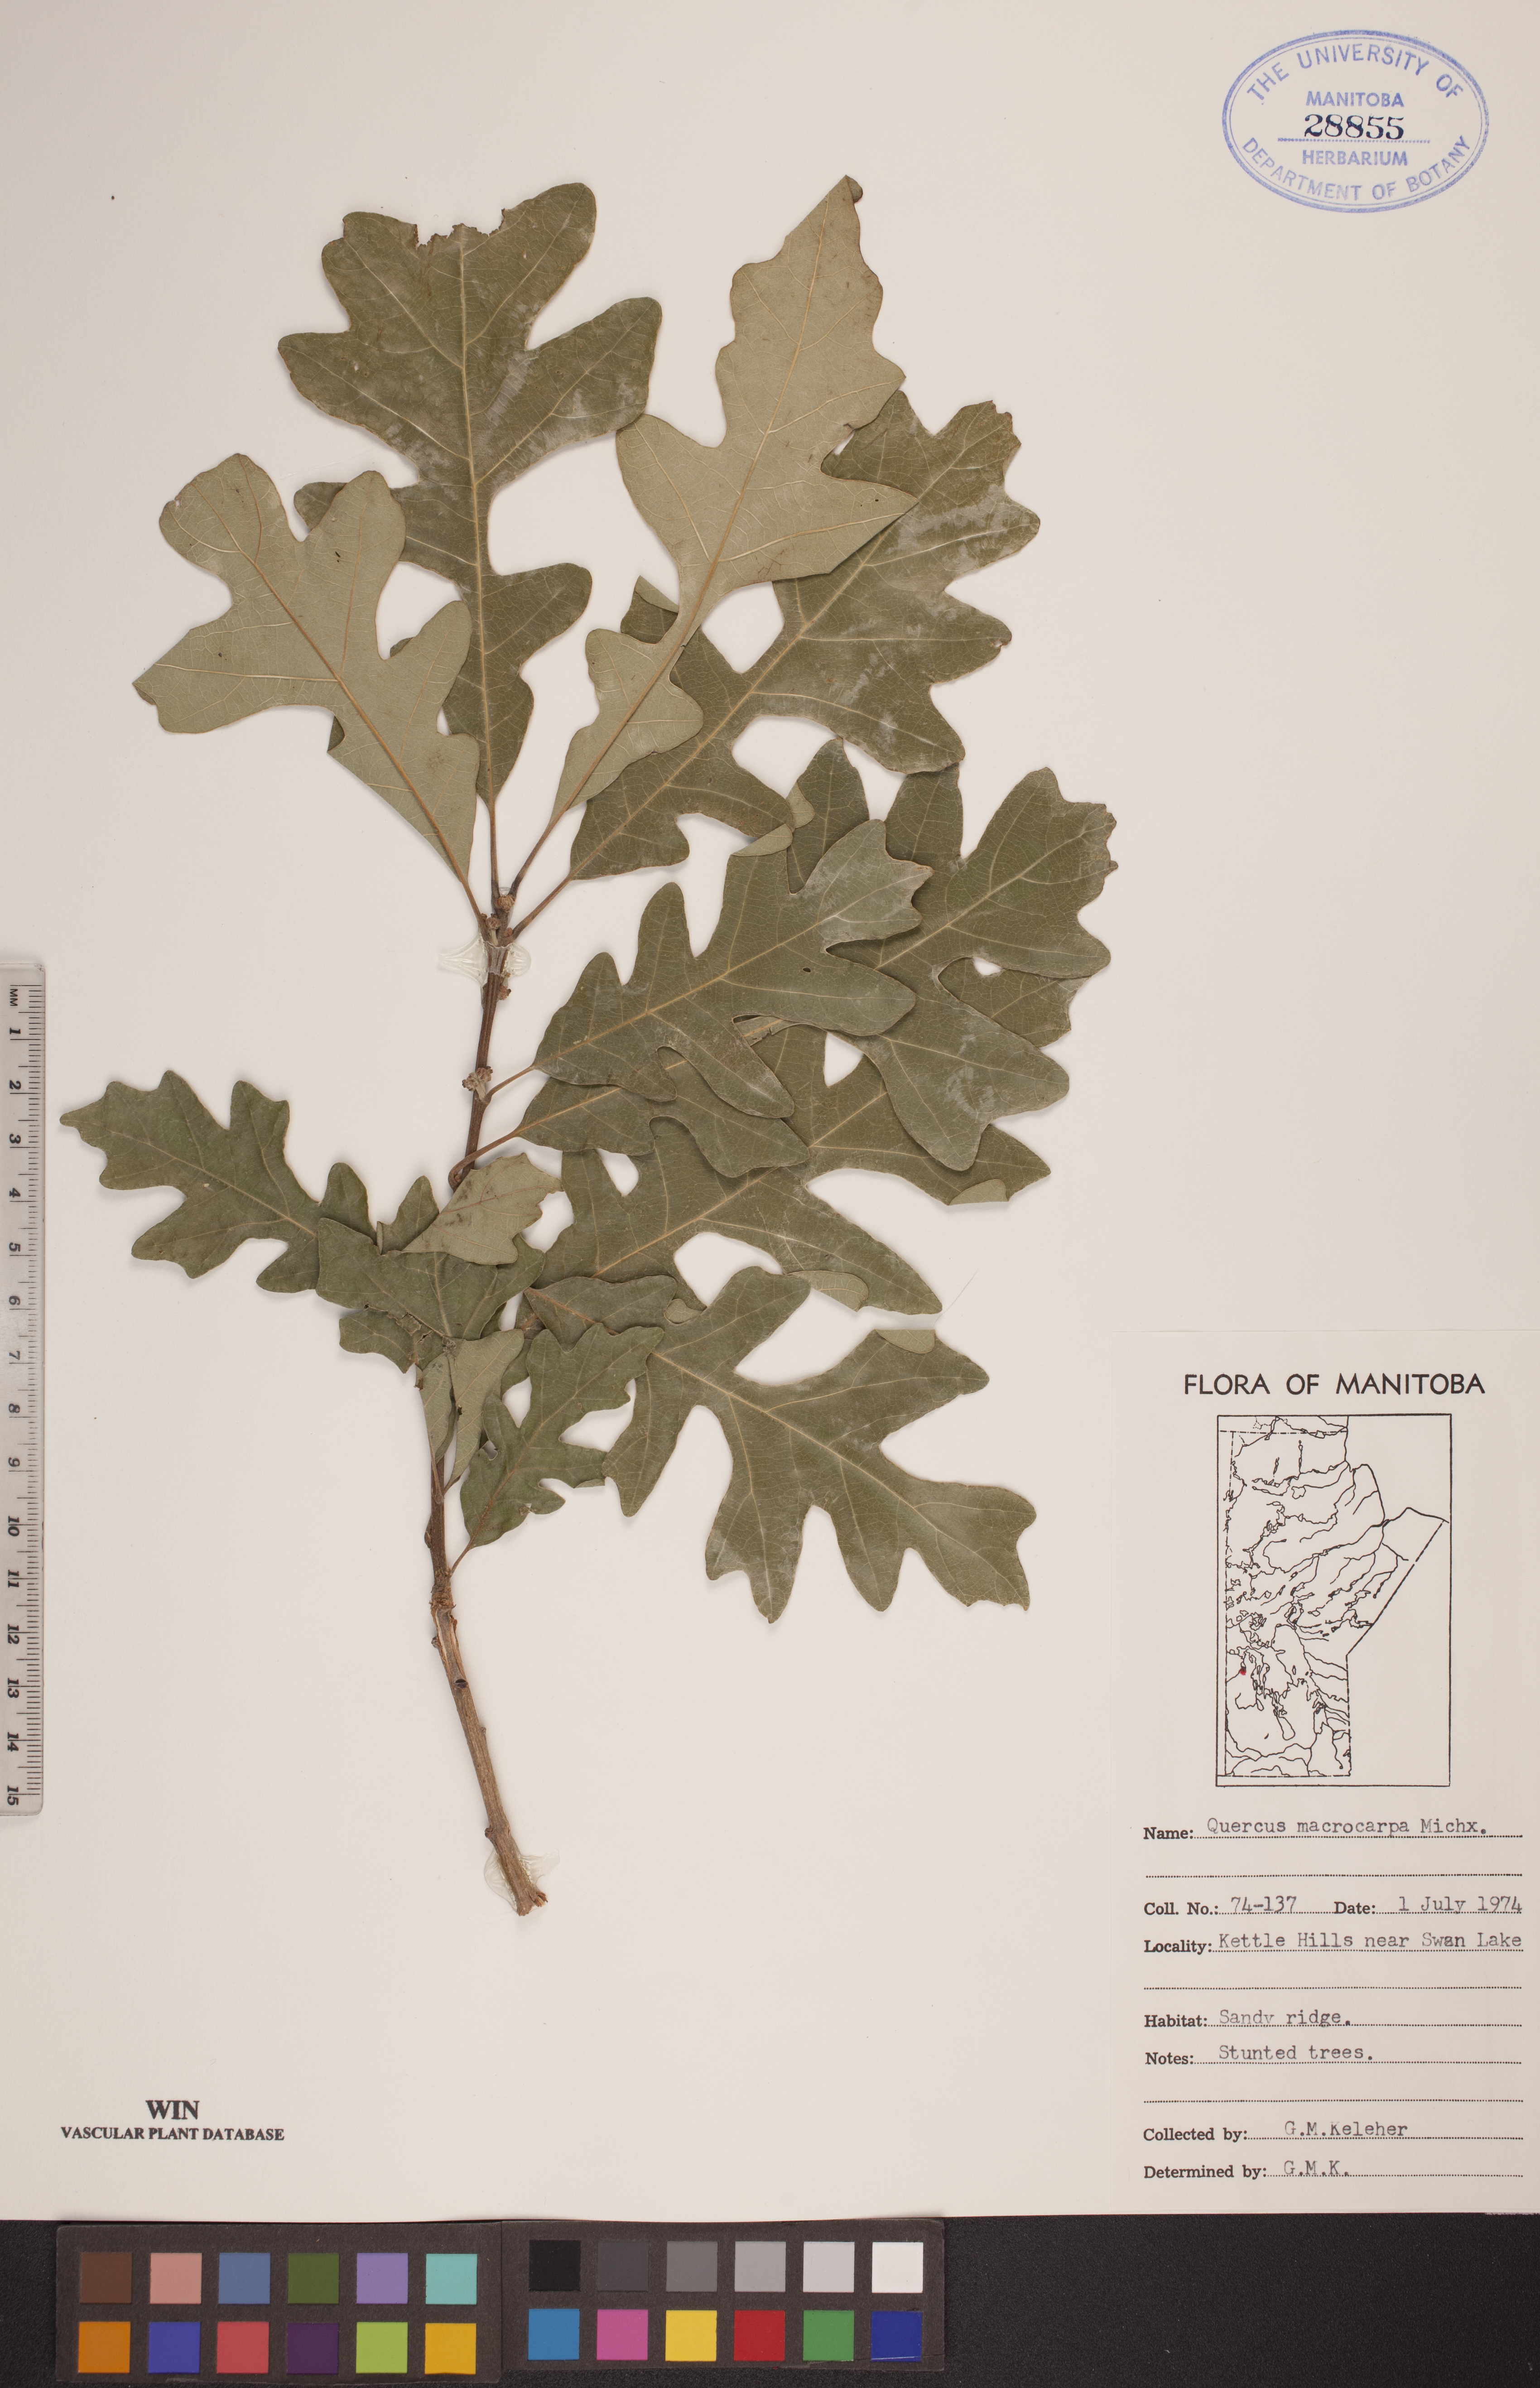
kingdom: Plantae
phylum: Tracheophyta
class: Magnoliopsida
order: Fagales
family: Fagaceae
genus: Quercus
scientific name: Quercus macrocarpa
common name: Bur oak
